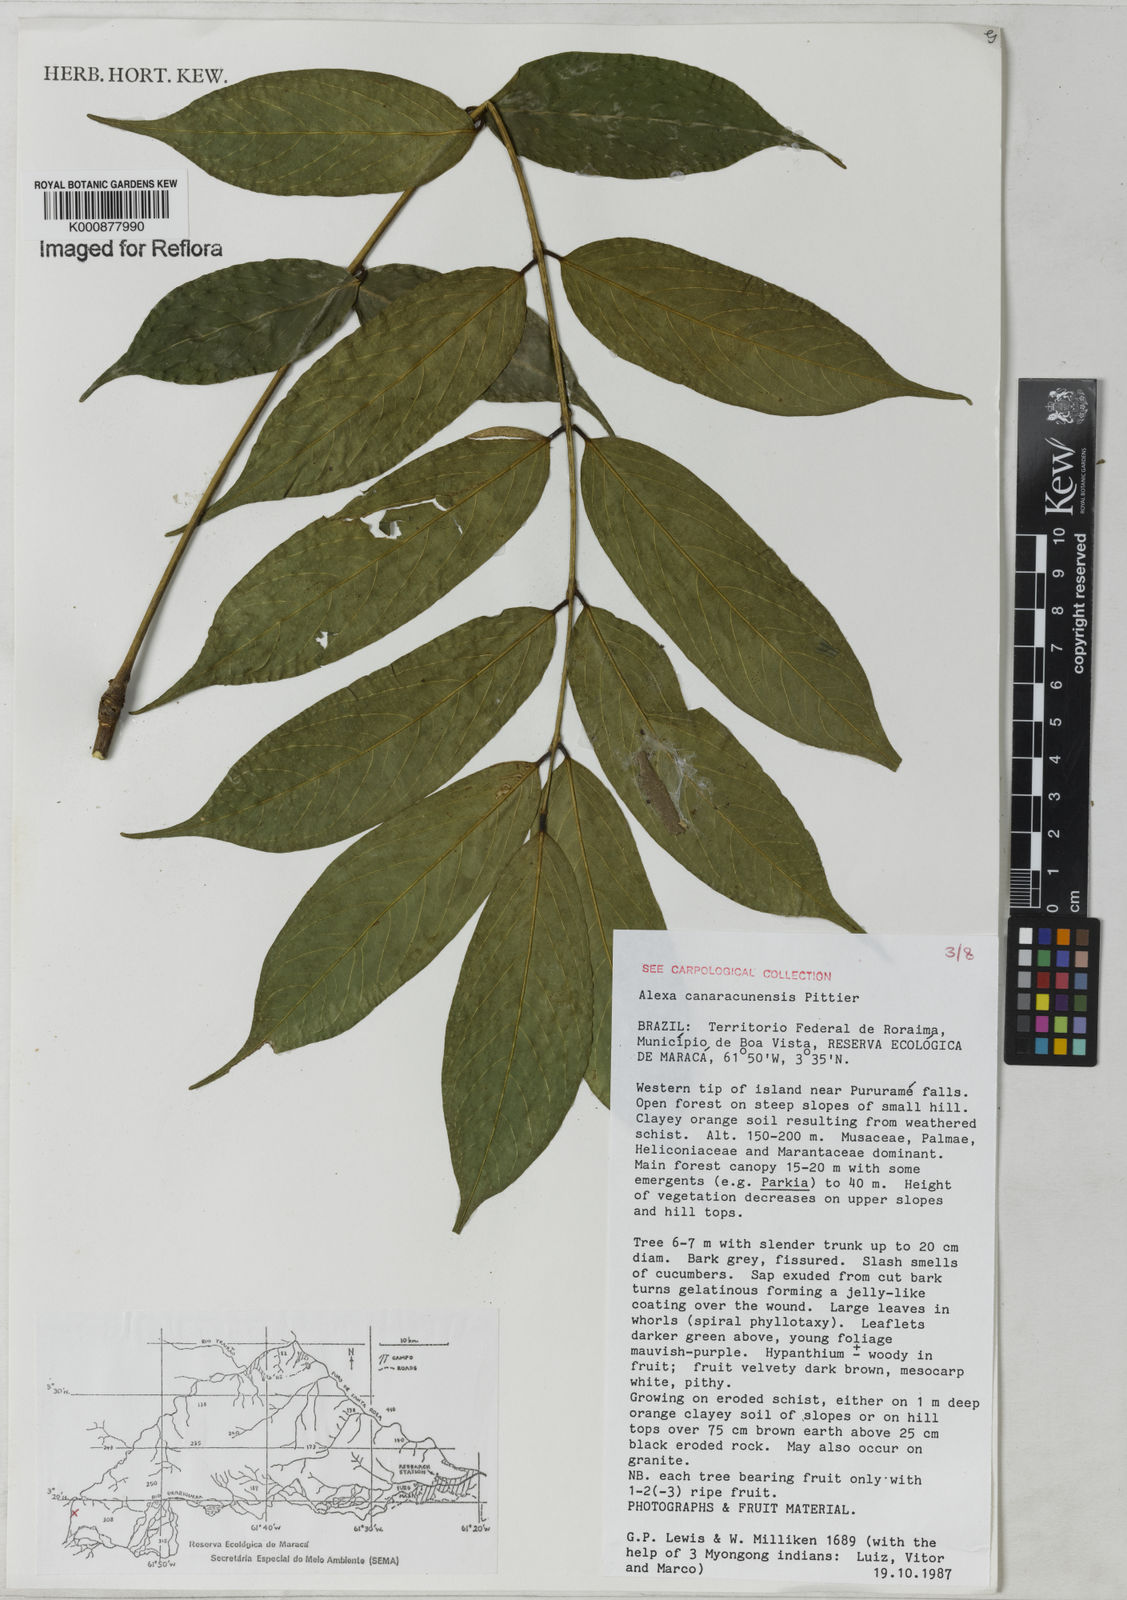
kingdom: Plantae
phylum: Tracheophyta
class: Magnoliopsida
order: Fabales
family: Fabaceae
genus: Alexa
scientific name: Alexa canaracunensis
